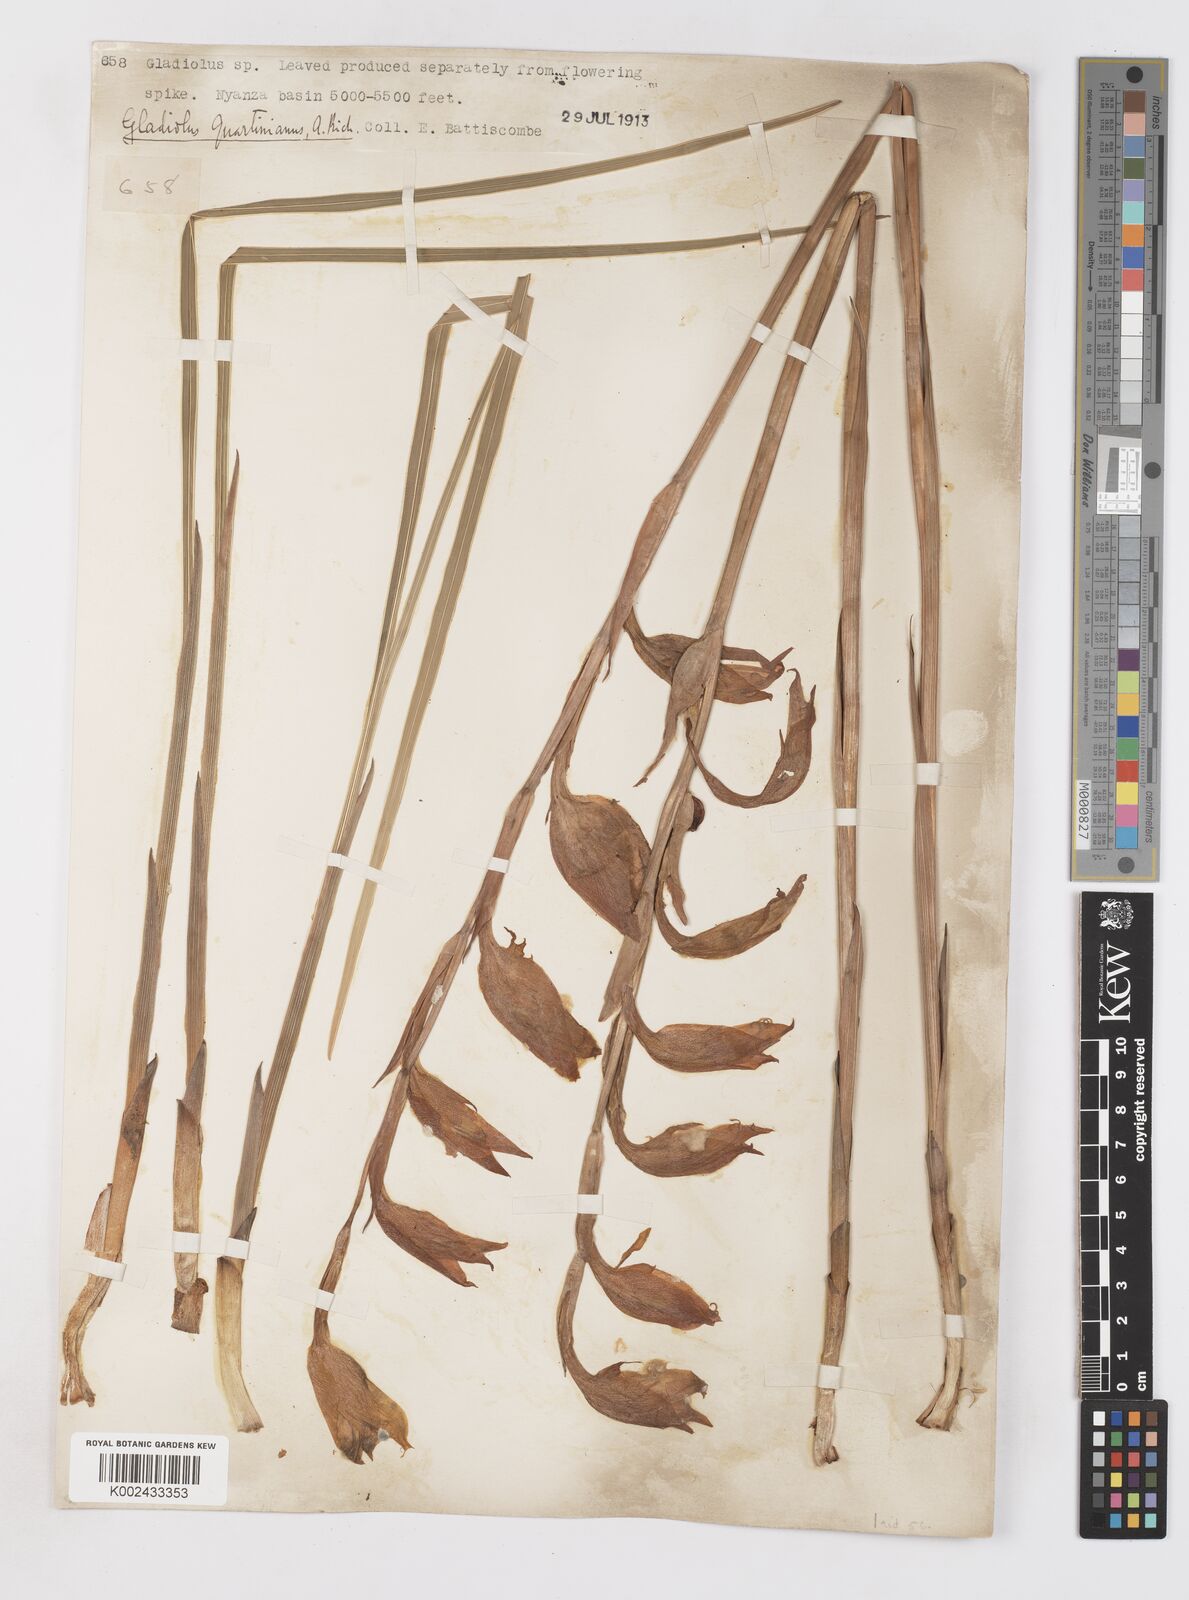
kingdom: Plantae
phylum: Tracheophyta
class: Liliopsida
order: Asparagales
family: Iridaceae
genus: Gladiolus
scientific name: Gladiolus dalenii
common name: Cornflag
